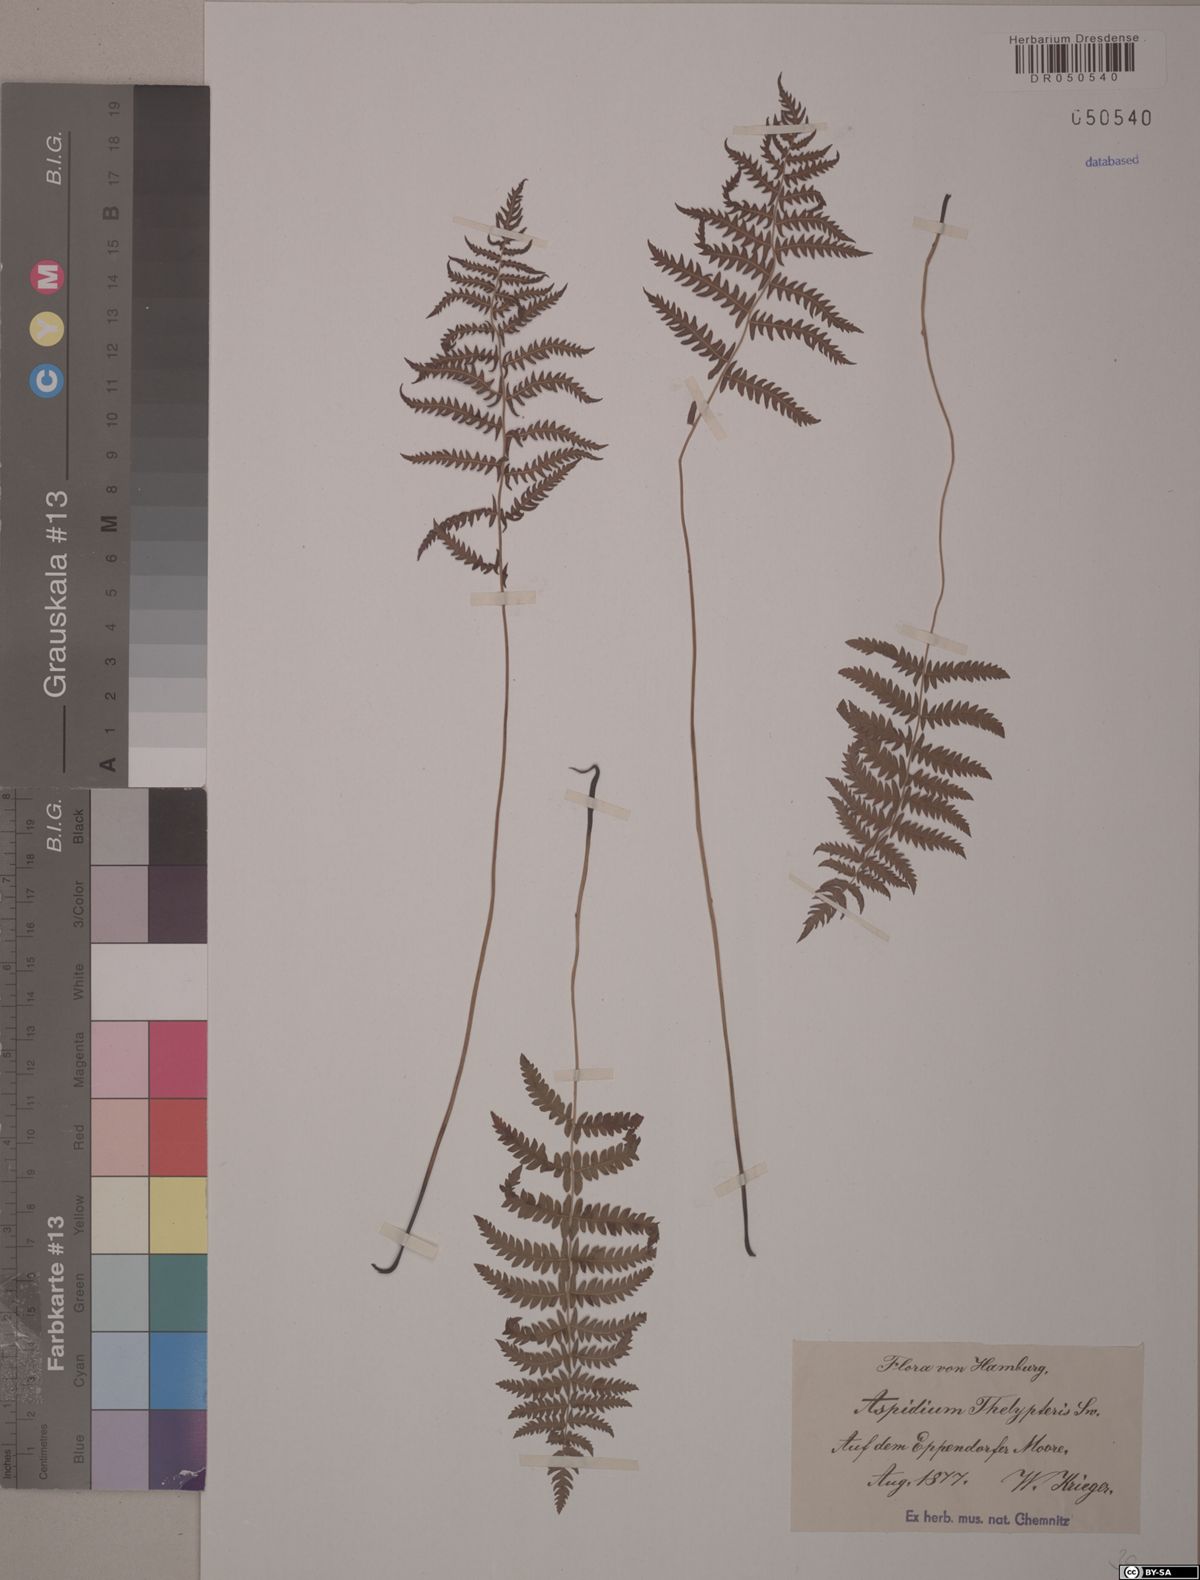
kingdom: Plantae
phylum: Tracheophyta
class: Polypodiopsida
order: Polypodiales
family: Thelypteridaceae
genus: Thelypteris
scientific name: Thelypteris palustris
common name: Marsh fern
